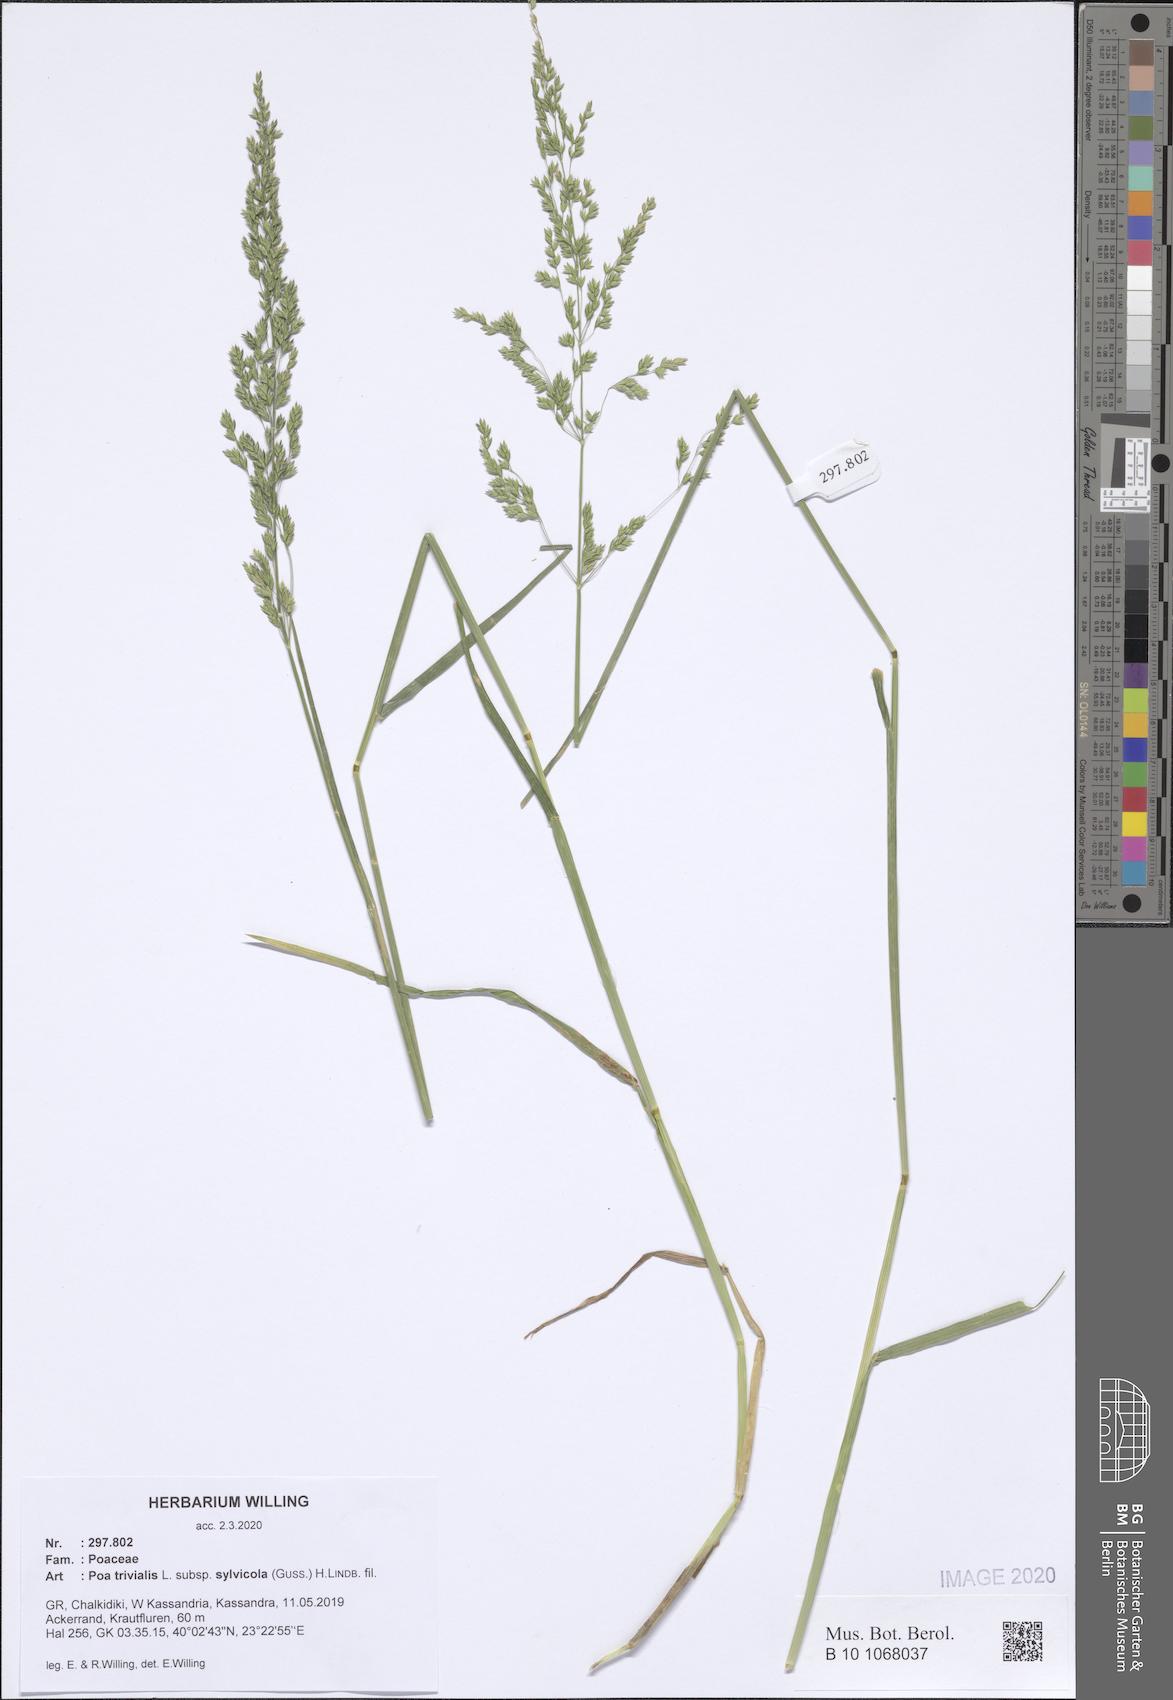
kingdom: Plantae
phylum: Tracheophyta
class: Liliopsida
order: Poales
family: Poaceae
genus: Poa
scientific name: Poa trivialis
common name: Rough bluegrass
